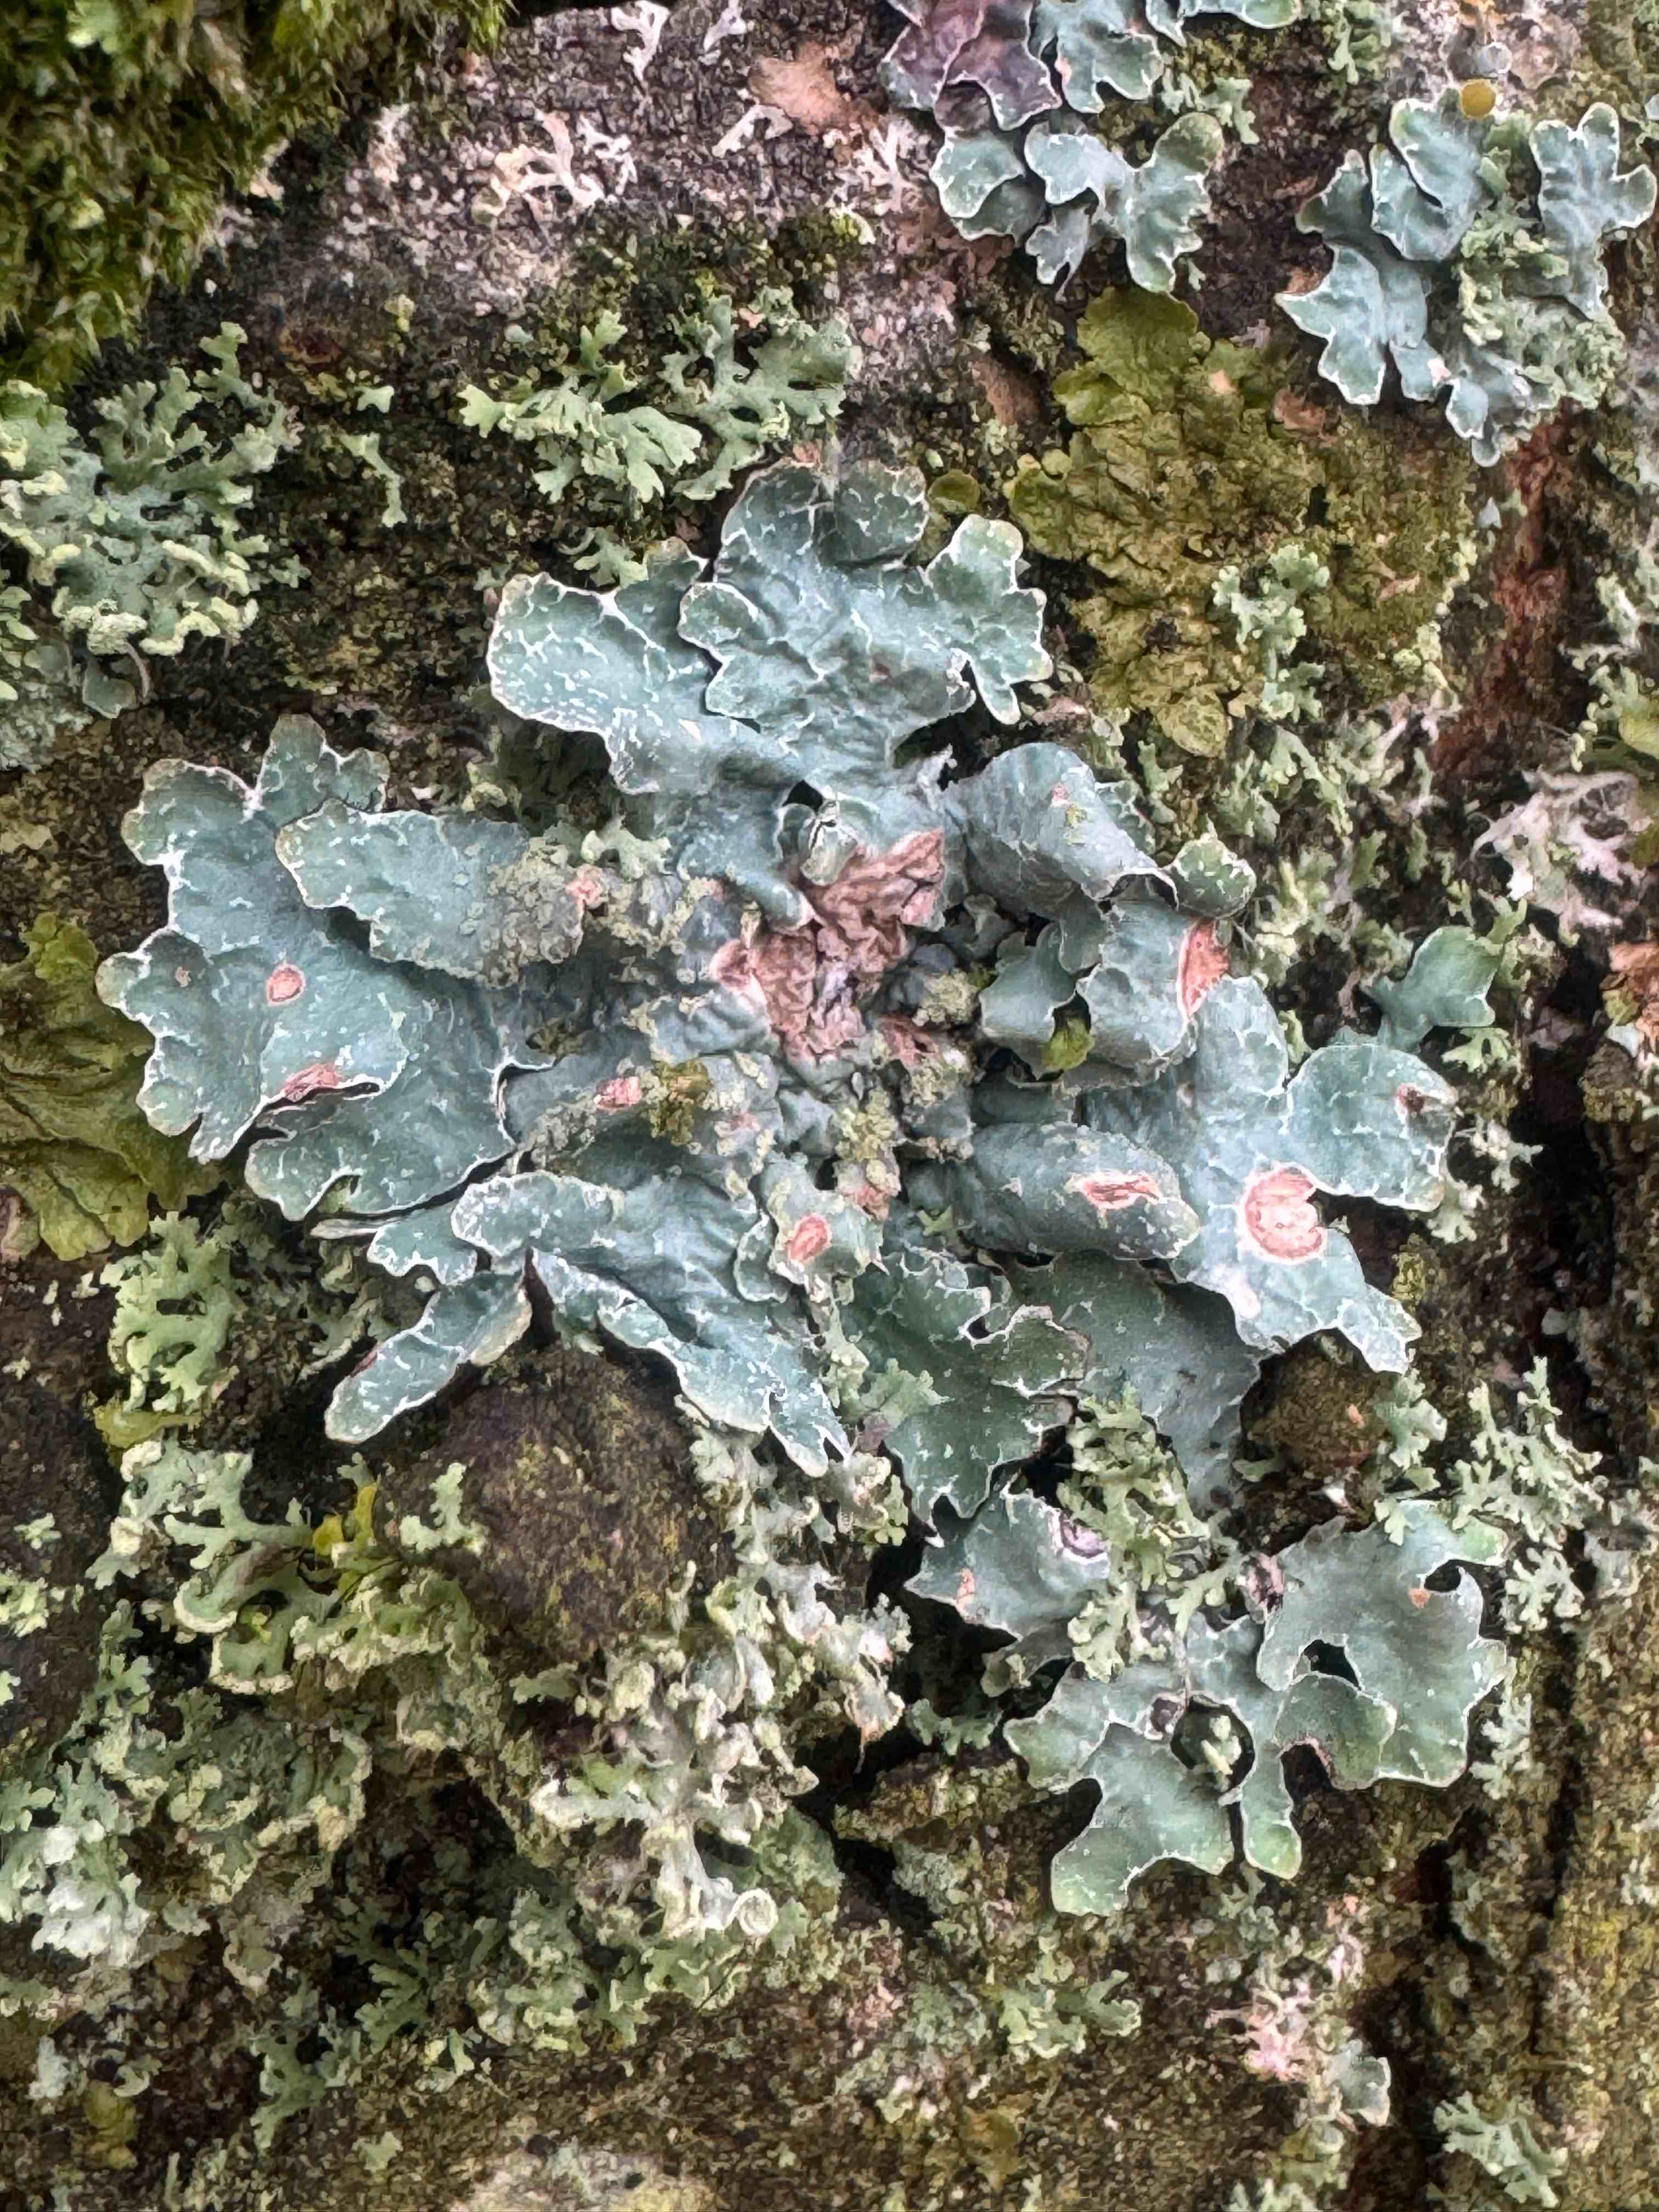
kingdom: Fungi
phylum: Ascomycota
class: Lecanoromycetes
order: Lecanorales
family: Parmeliaceae
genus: Parmelia
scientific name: Parmelia sulcata
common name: rynket skållav
